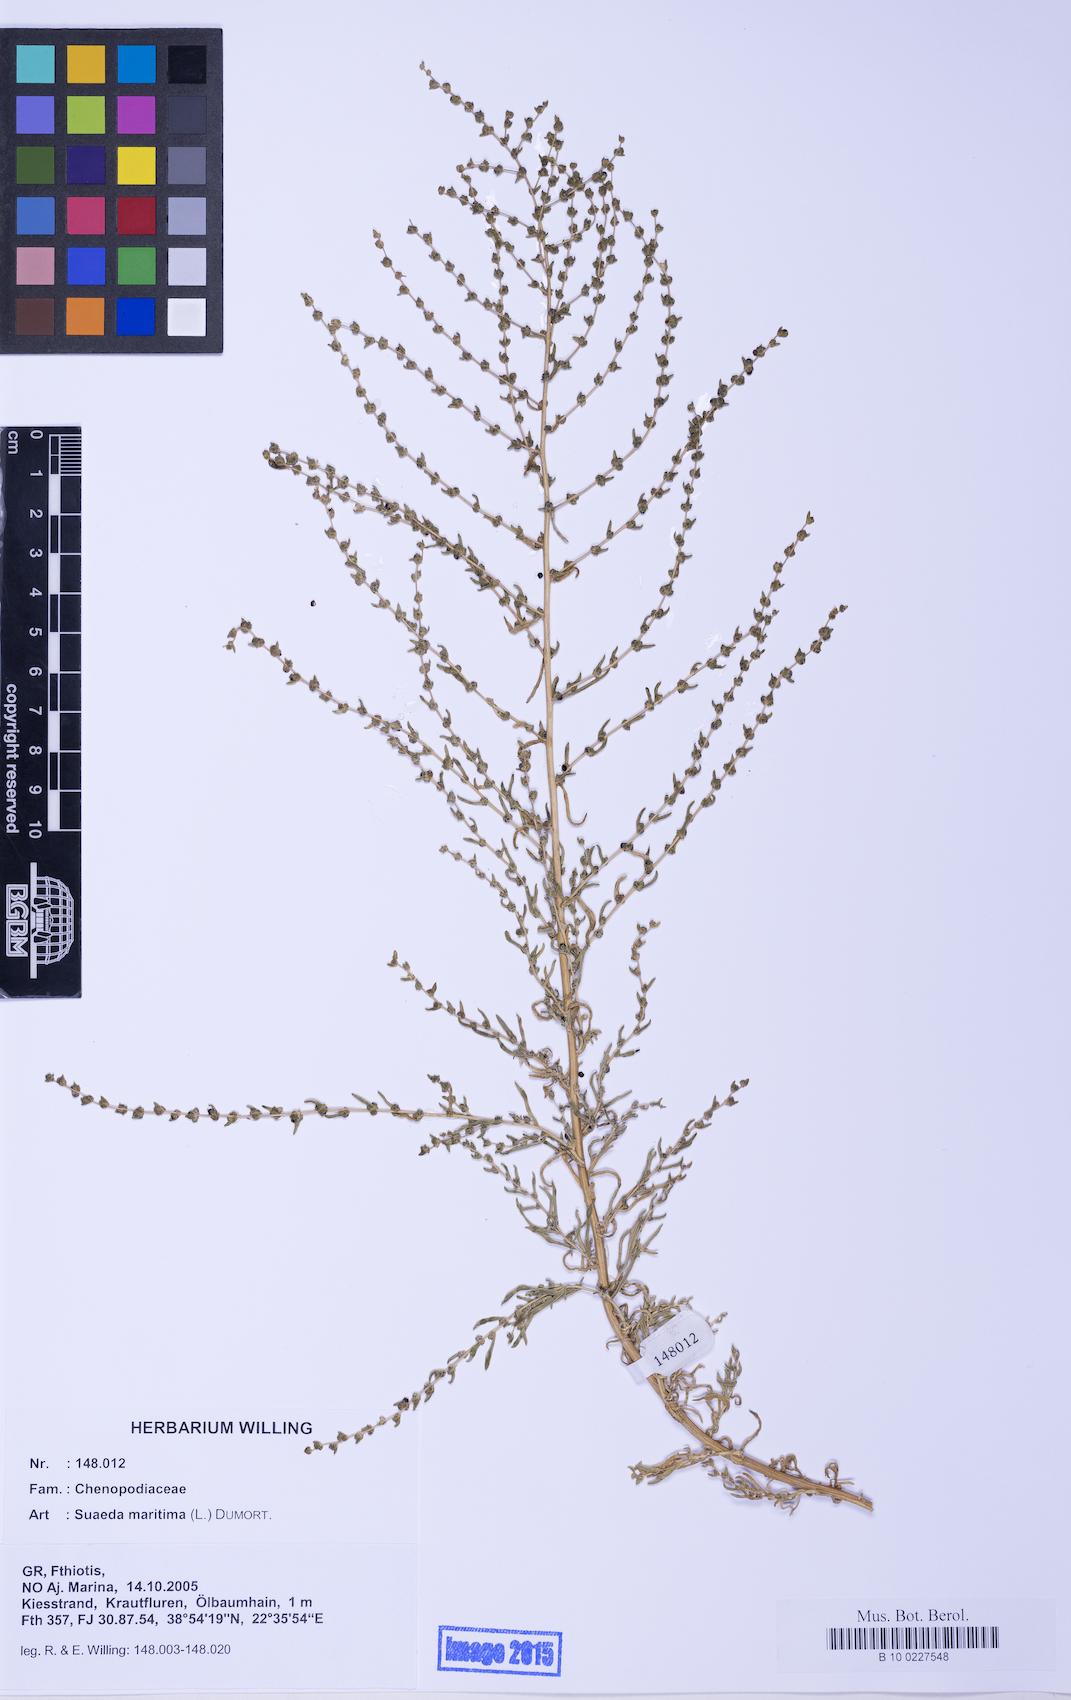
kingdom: Plantae
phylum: Tracheophyta
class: Magnoliopsida
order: Caryophyllales
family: Amaranthaceae
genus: Suaeda
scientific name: Suaeda maritima
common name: Annual sea-blite
